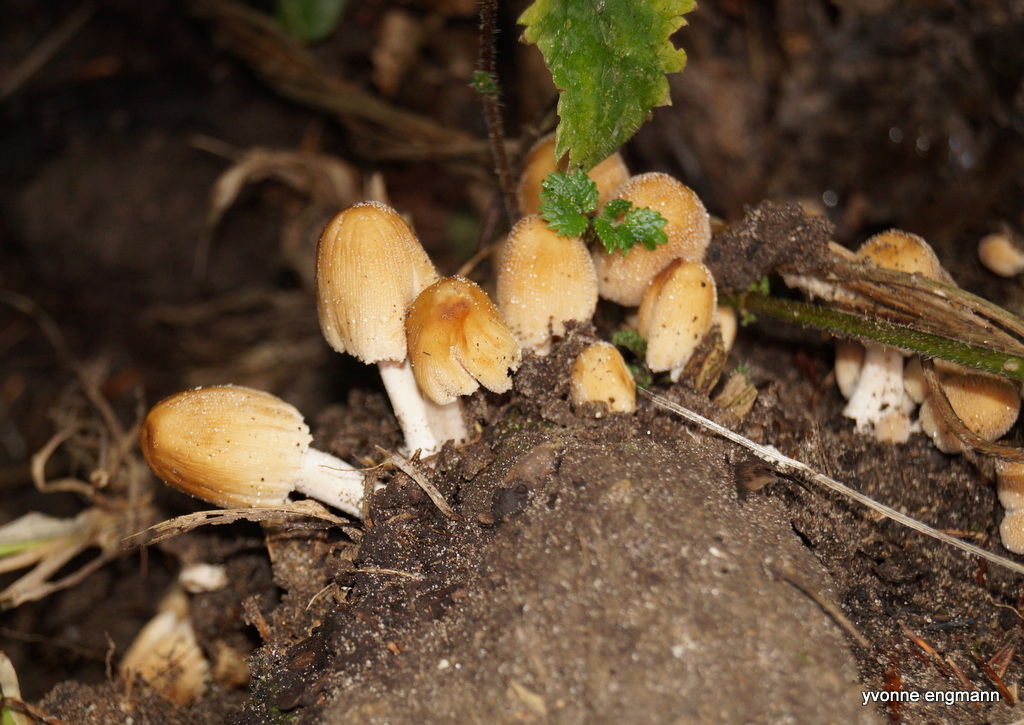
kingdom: Fungi
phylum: Basidiomycota
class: Agaricomycetes
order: Agaricales
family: Psathyrellaceae
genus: Coprinellus
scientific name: Coprinellus micaceus
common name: glimmer-blækhat
